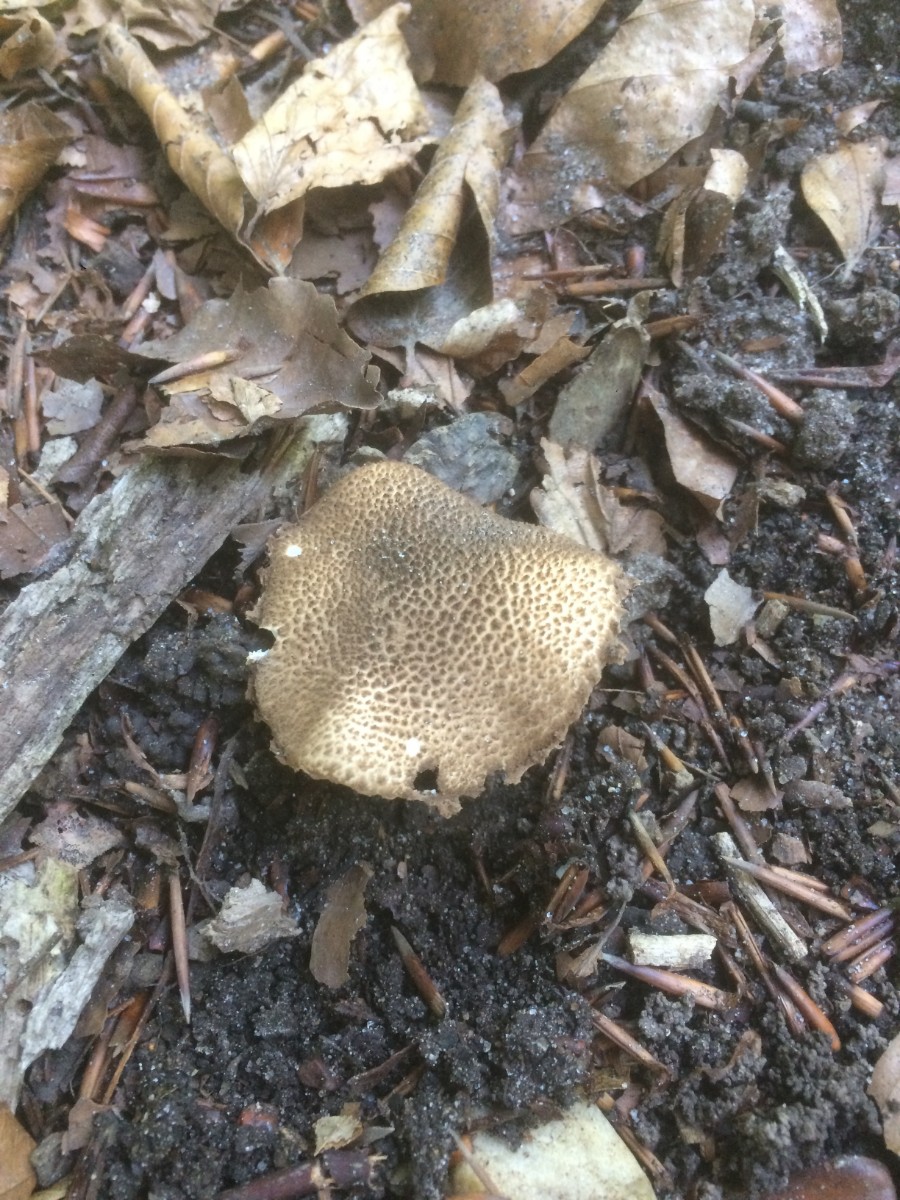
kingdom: Fungi
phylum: Basidiomycota
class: Agaricomycetes
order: Agaricales
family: Agaricaceae
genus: Echinoderma
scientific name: Echinoderma jacobi
